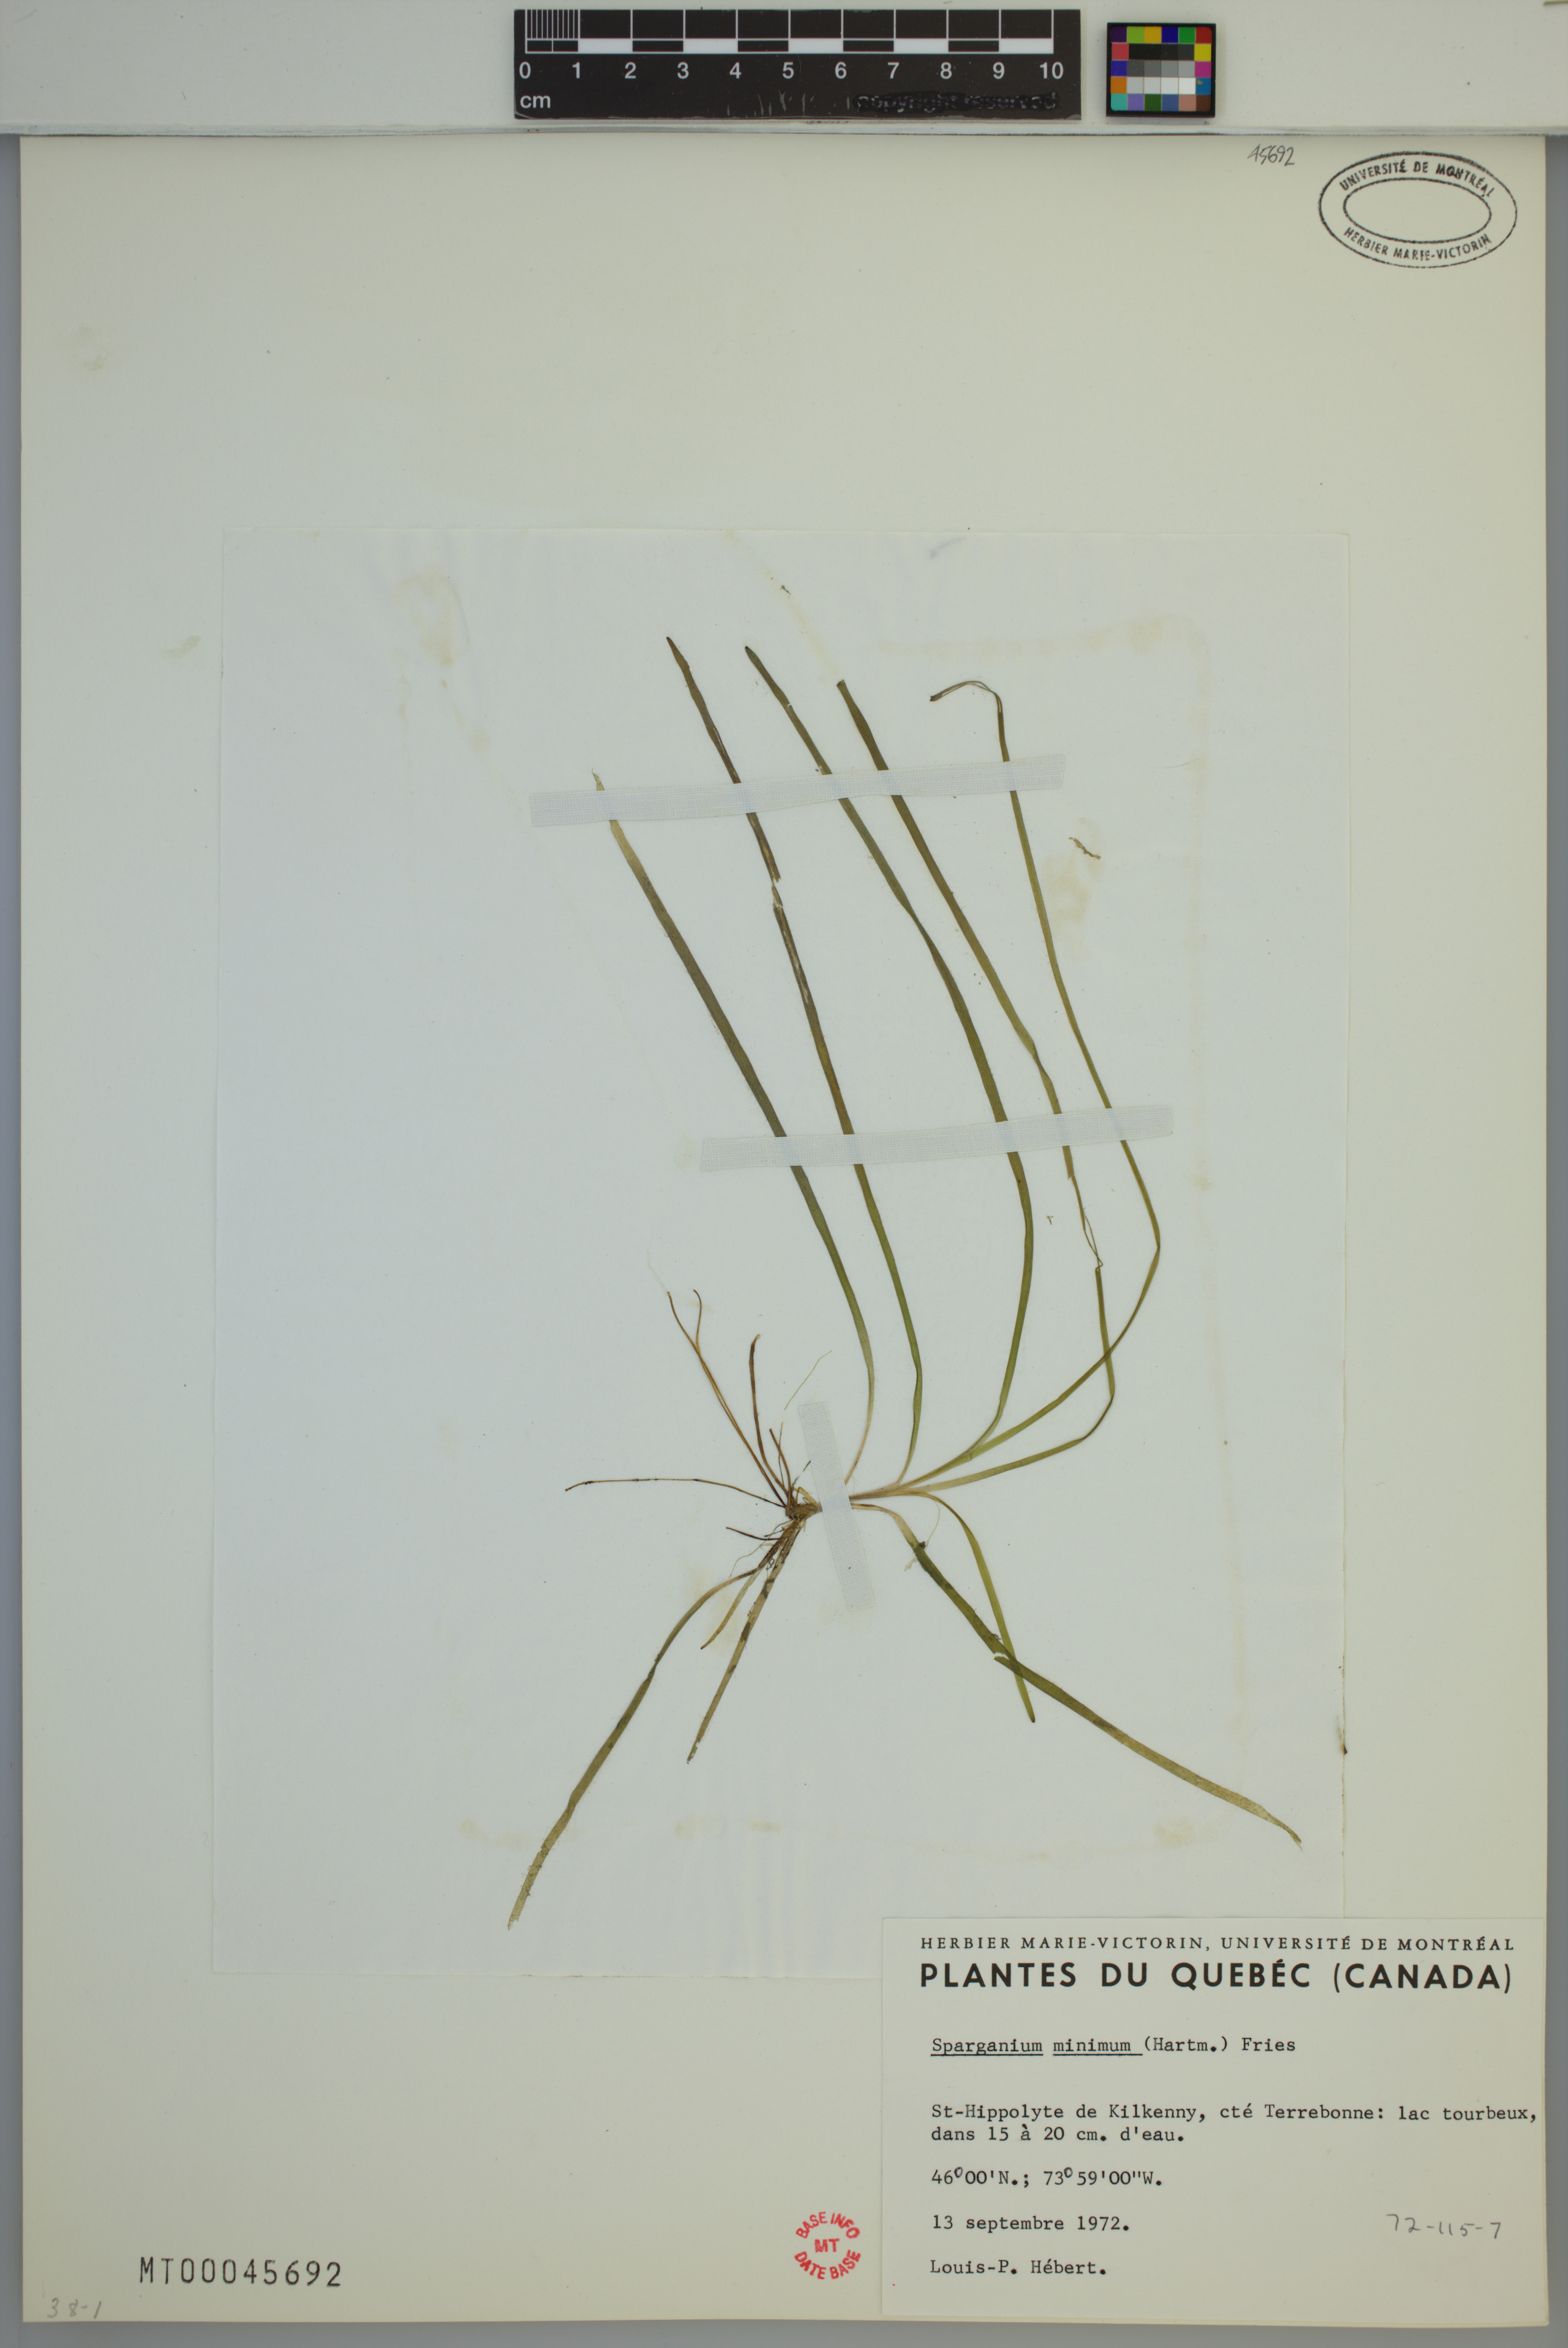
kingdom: Plantae
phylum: Tracheophyta
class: Liliopsida
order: Poales
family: Typhaceae
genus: Sparganium
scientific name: Sparganium natans
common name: Least bur-reed
